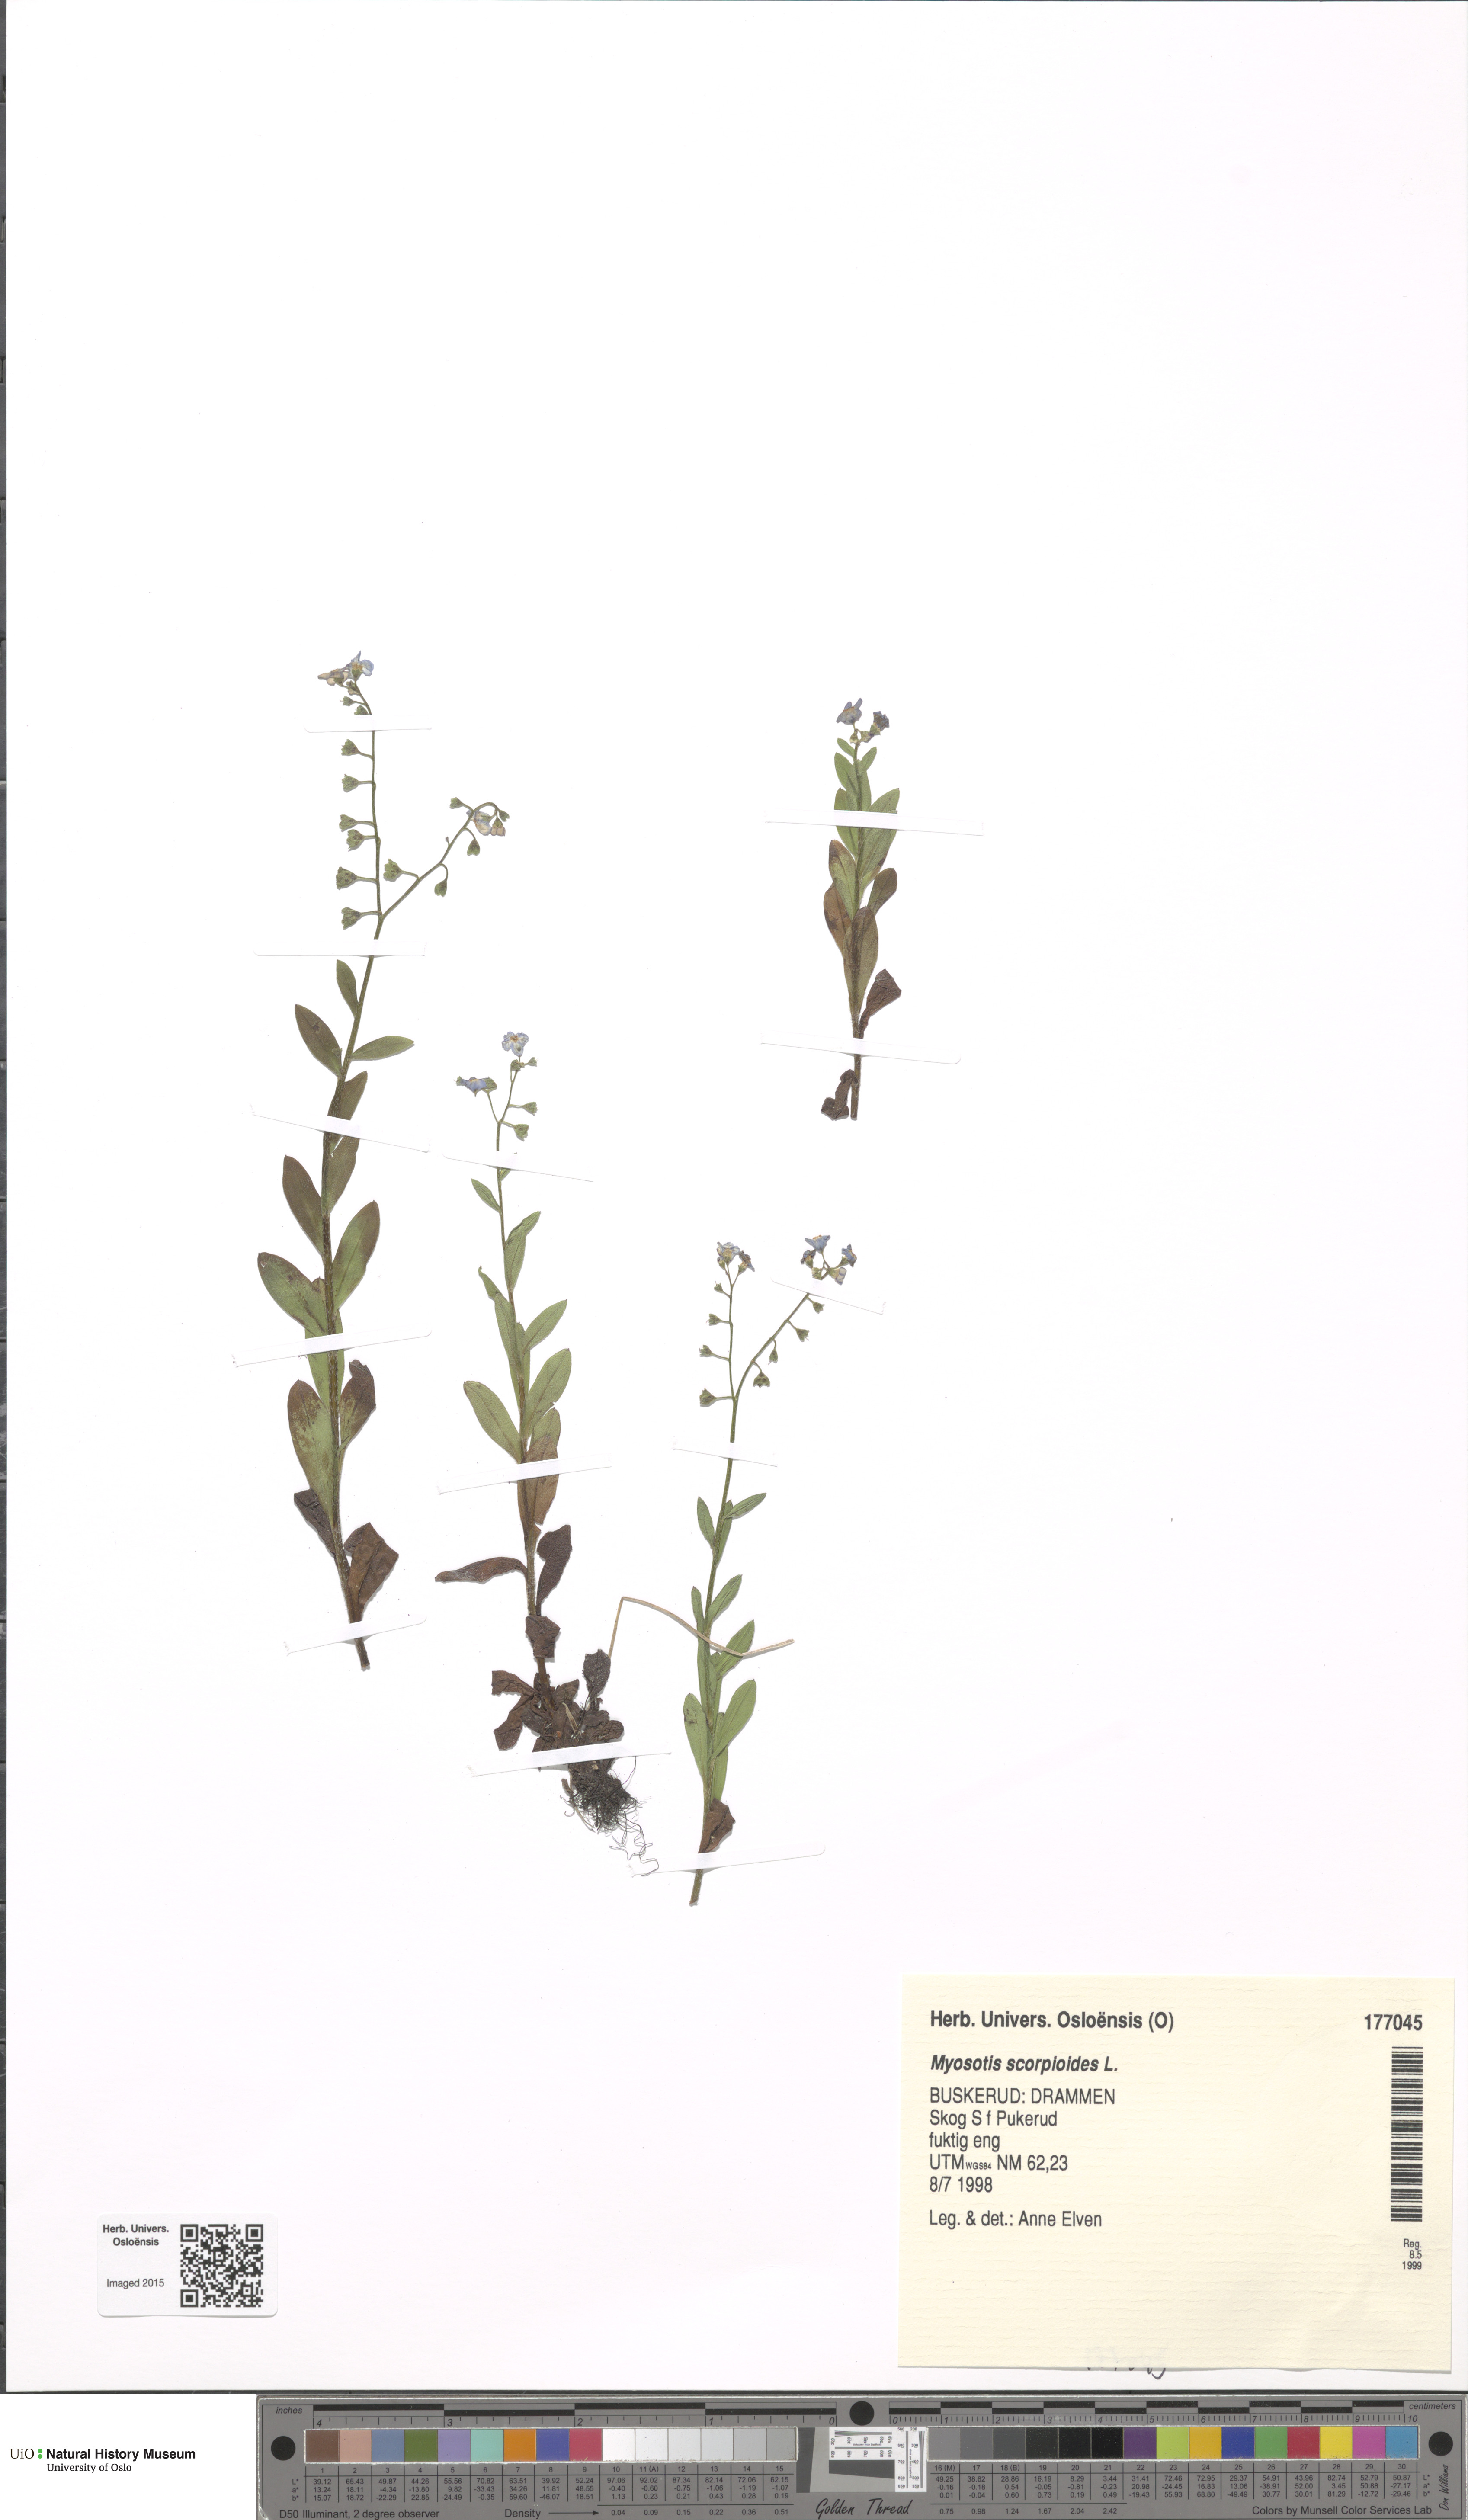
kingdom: Plantae
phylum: Tracheophyta
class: Magnoliopsida
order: Boraginales
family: Boraginaceae
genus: Myosotis
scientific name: Myosotis scorpioides
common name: Water forget-me-not
